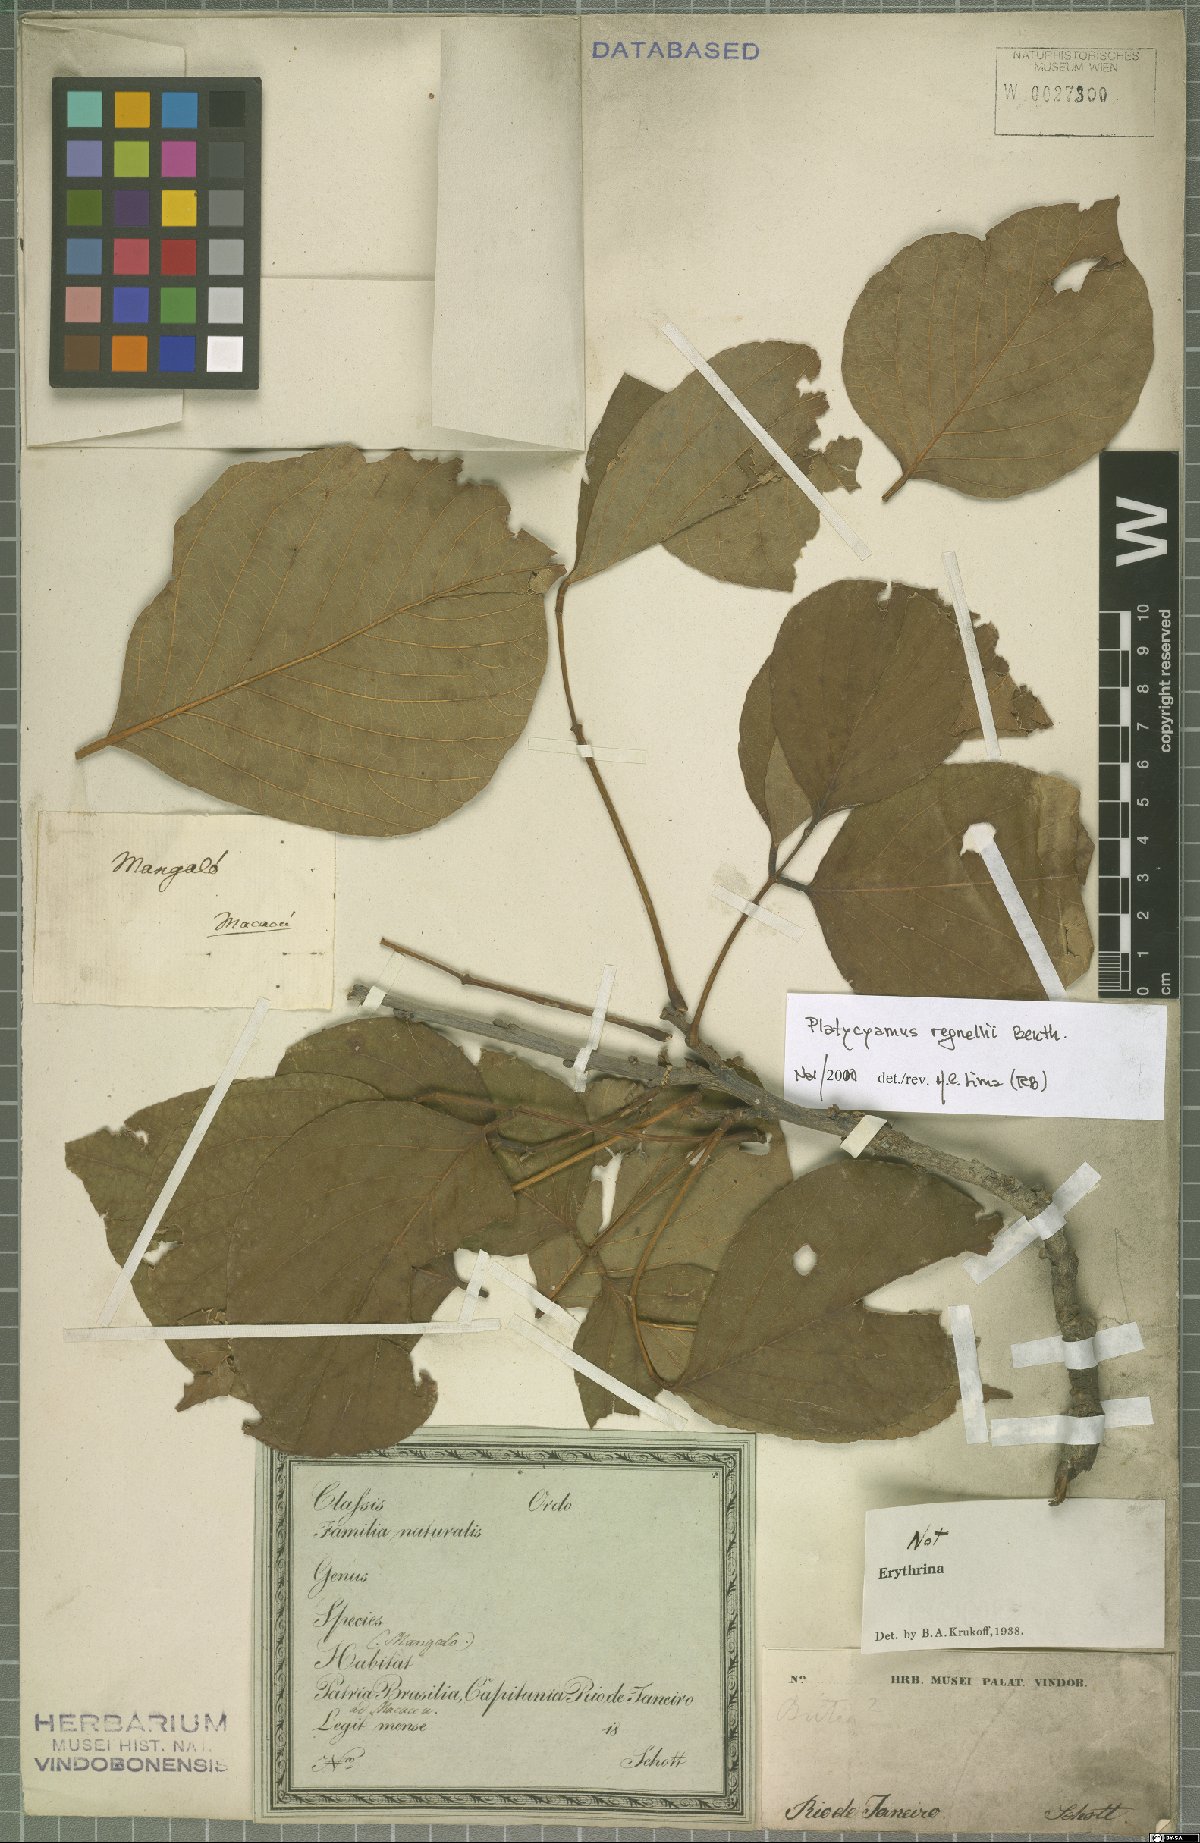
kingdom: Plantae
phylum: Tracheophyta
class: Magnoliopsida
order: Fabales
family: Fabaceae
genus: Platycyamus
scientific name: Platycyamus regnellii
